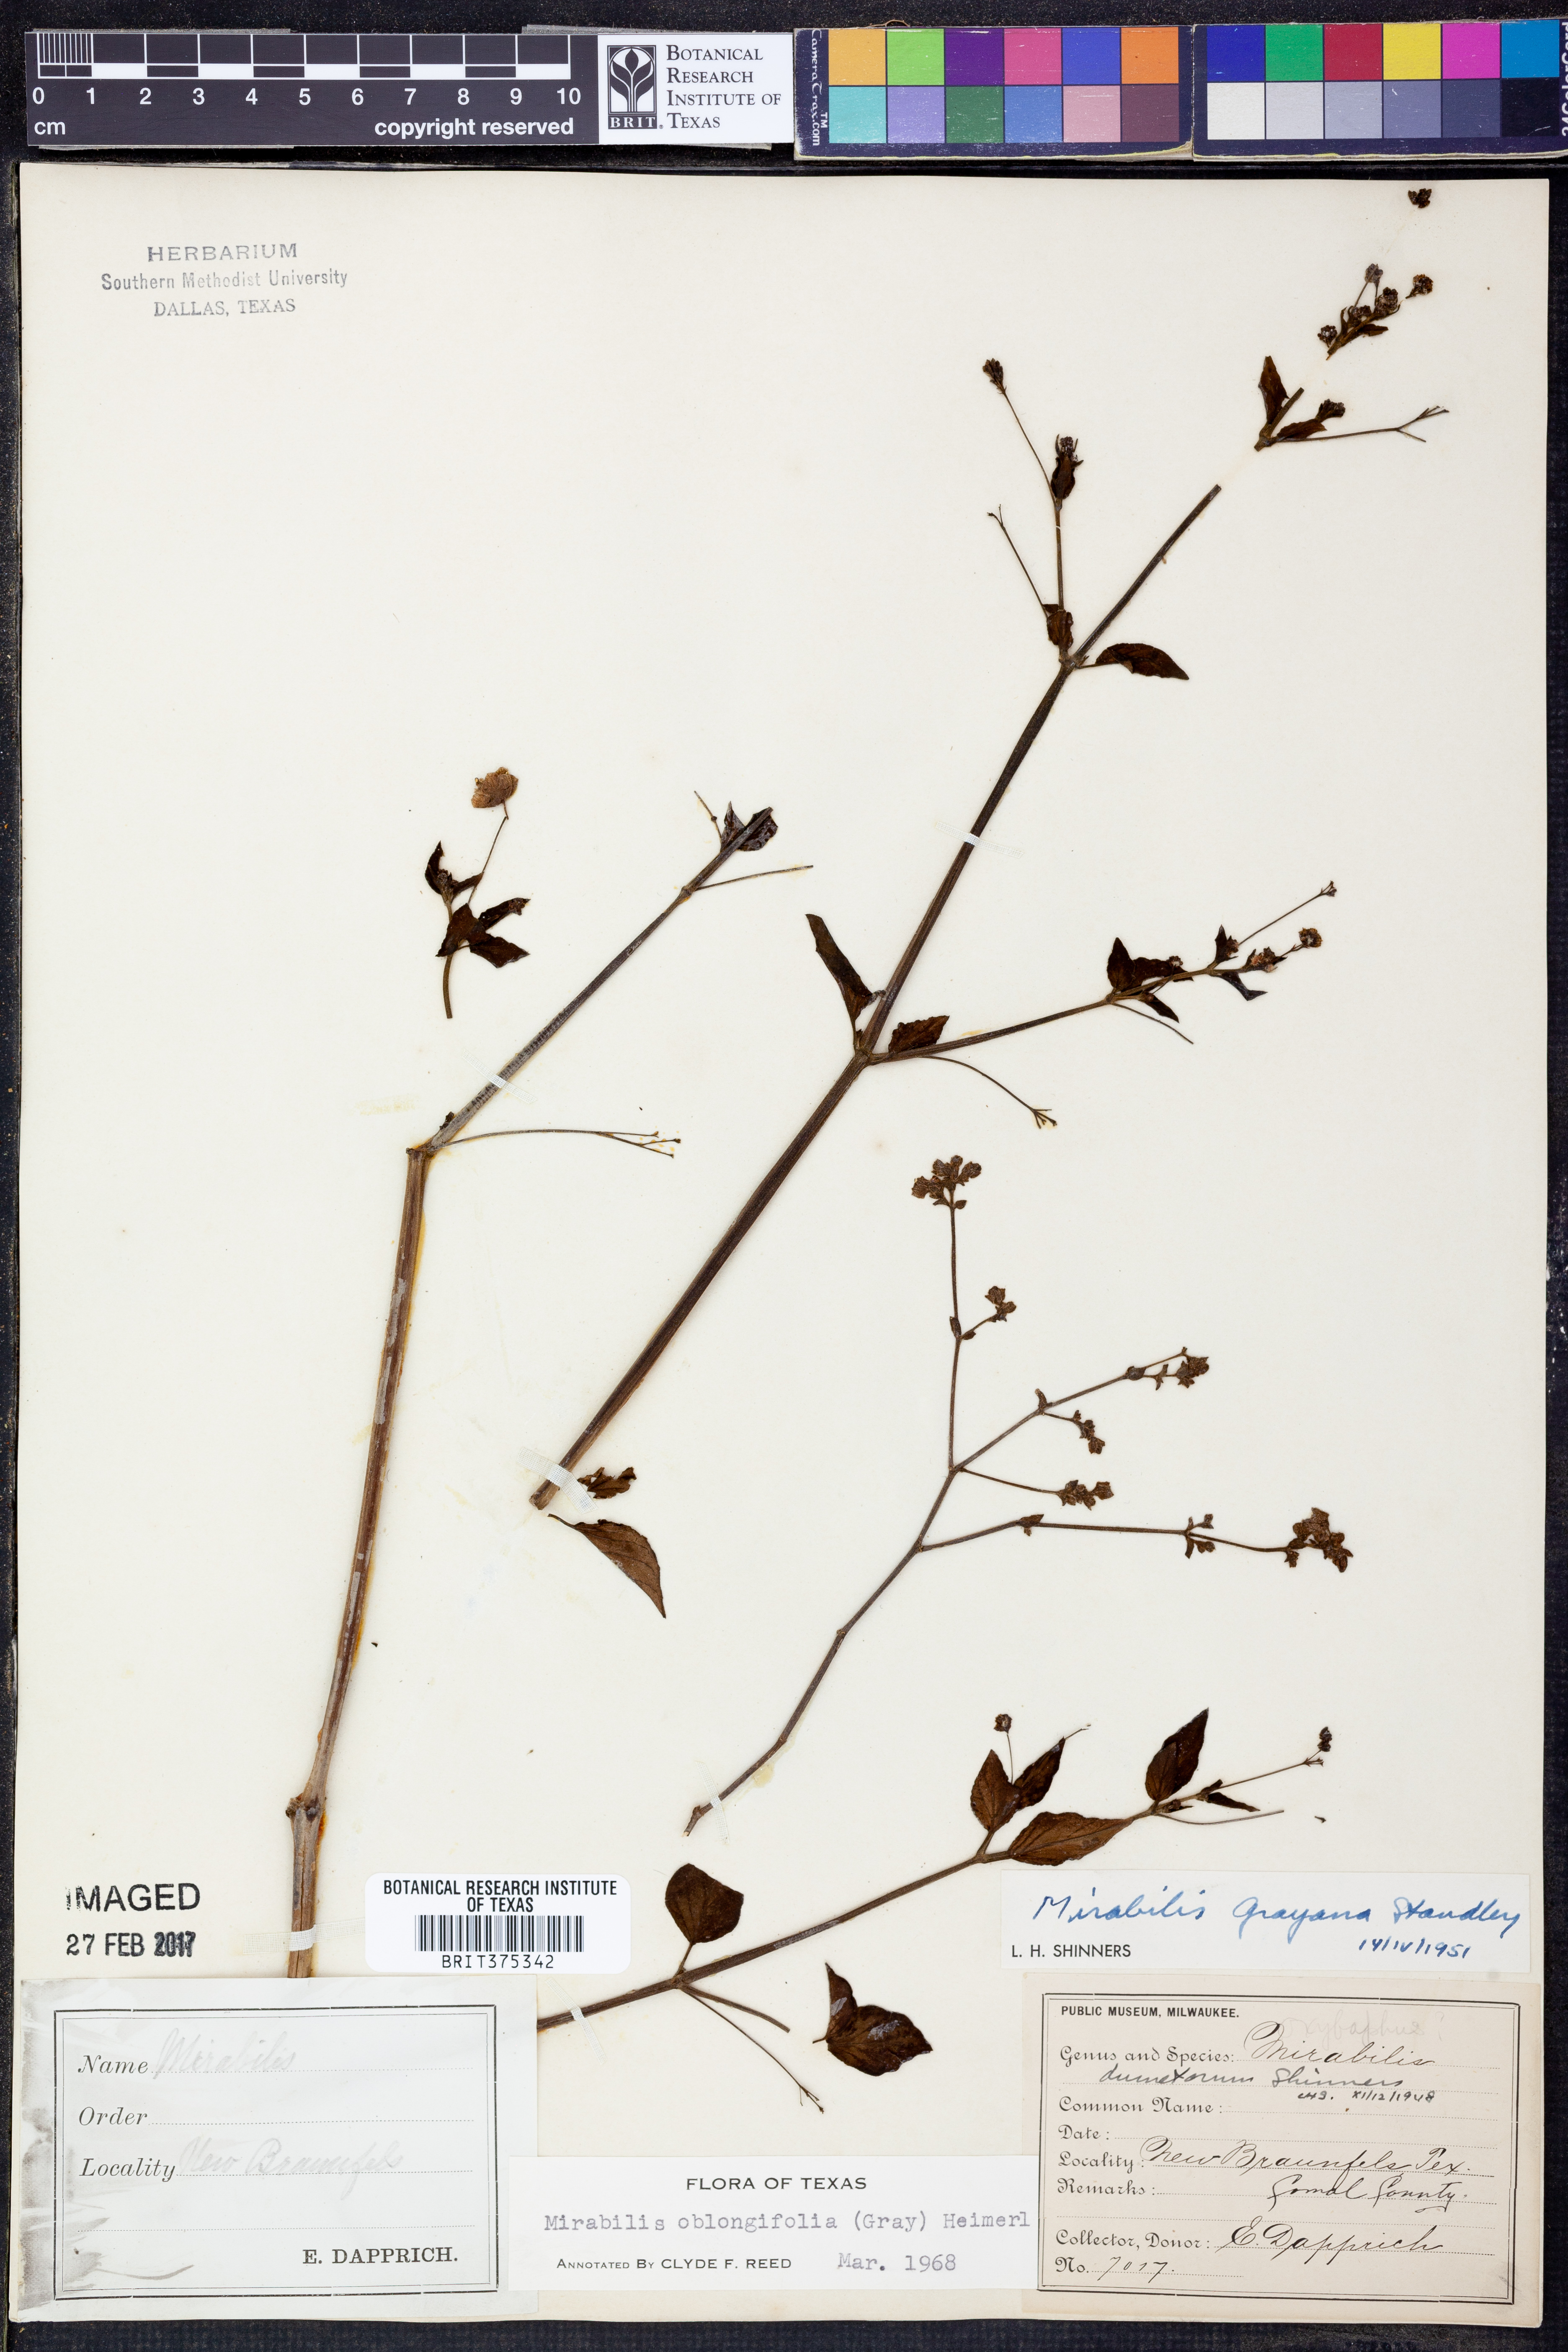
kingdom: Plantae
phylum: Tracheophyta
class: Magnoliopsida
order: Caryophyllales
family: Nyctaginaceae
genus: Mirabilis
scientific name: Mirabilis albida
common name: Hairy four-o'clock
